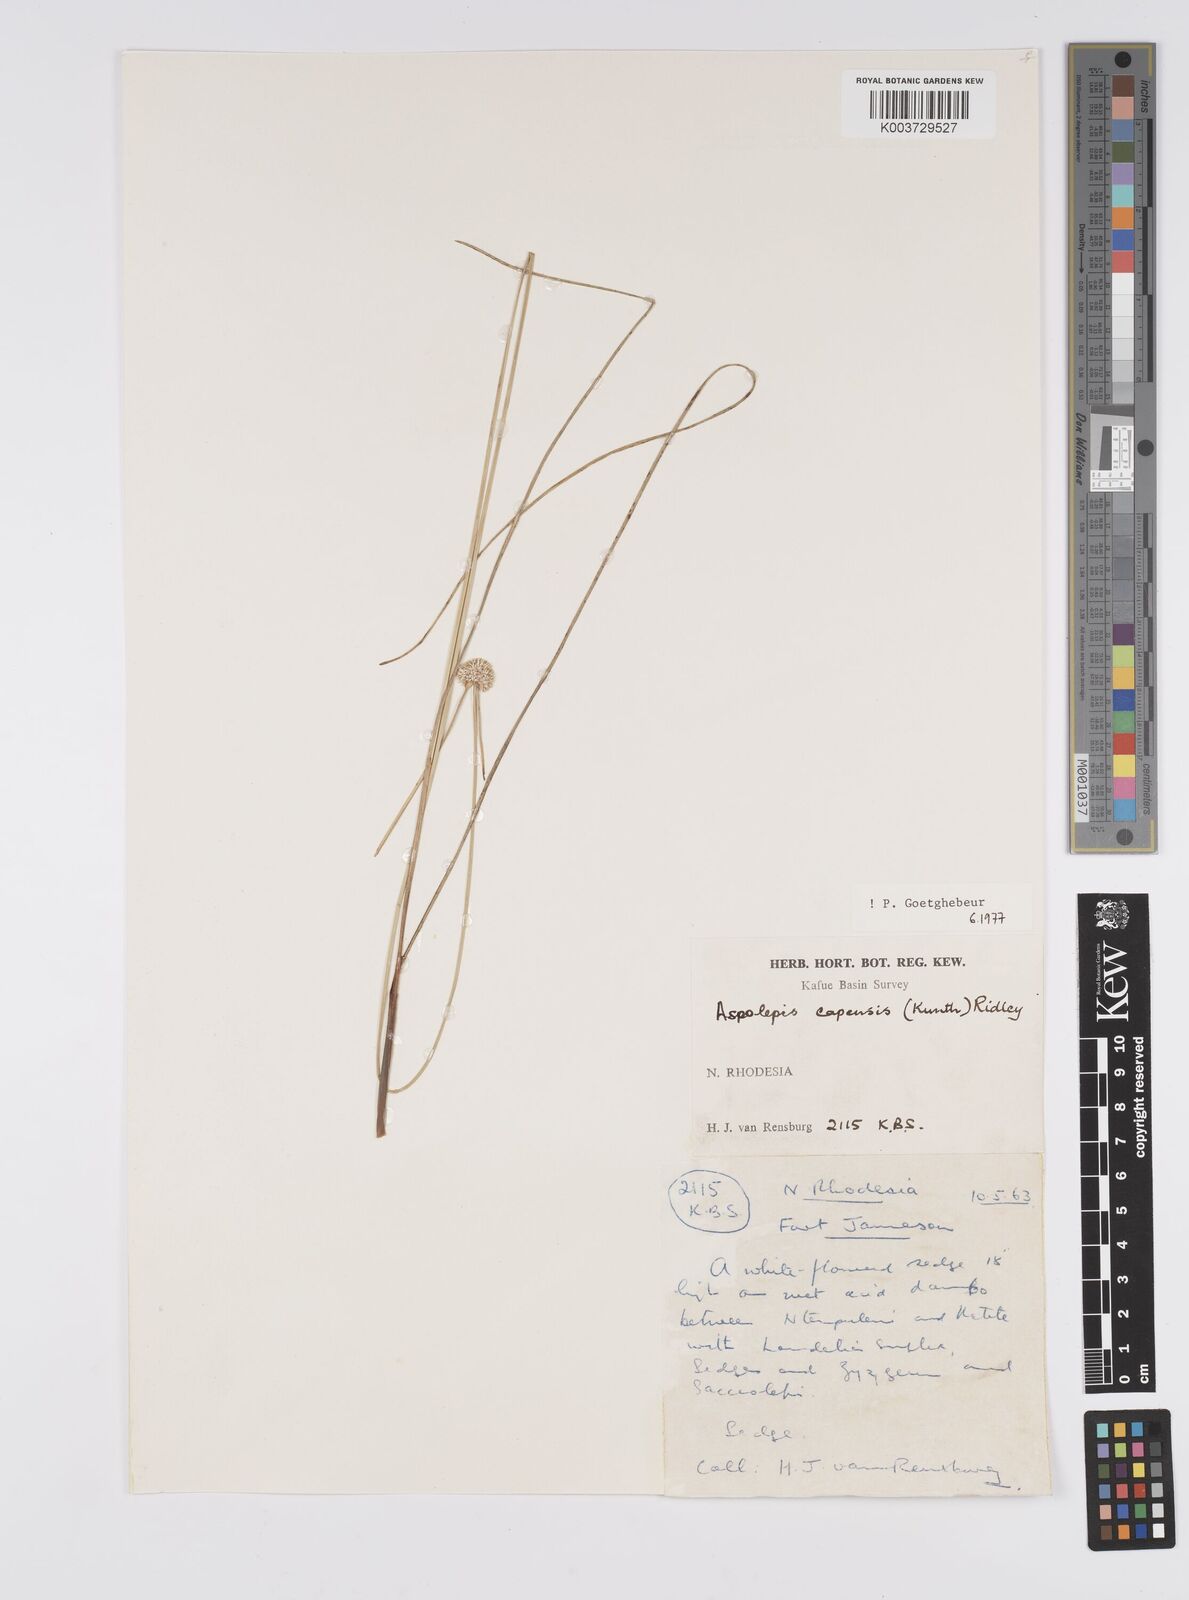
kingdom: Plantae
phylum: Tracheophyta
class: Liliopsida
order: Poales
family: Cyperaceae
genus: Cyperus
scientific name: Cyperus
